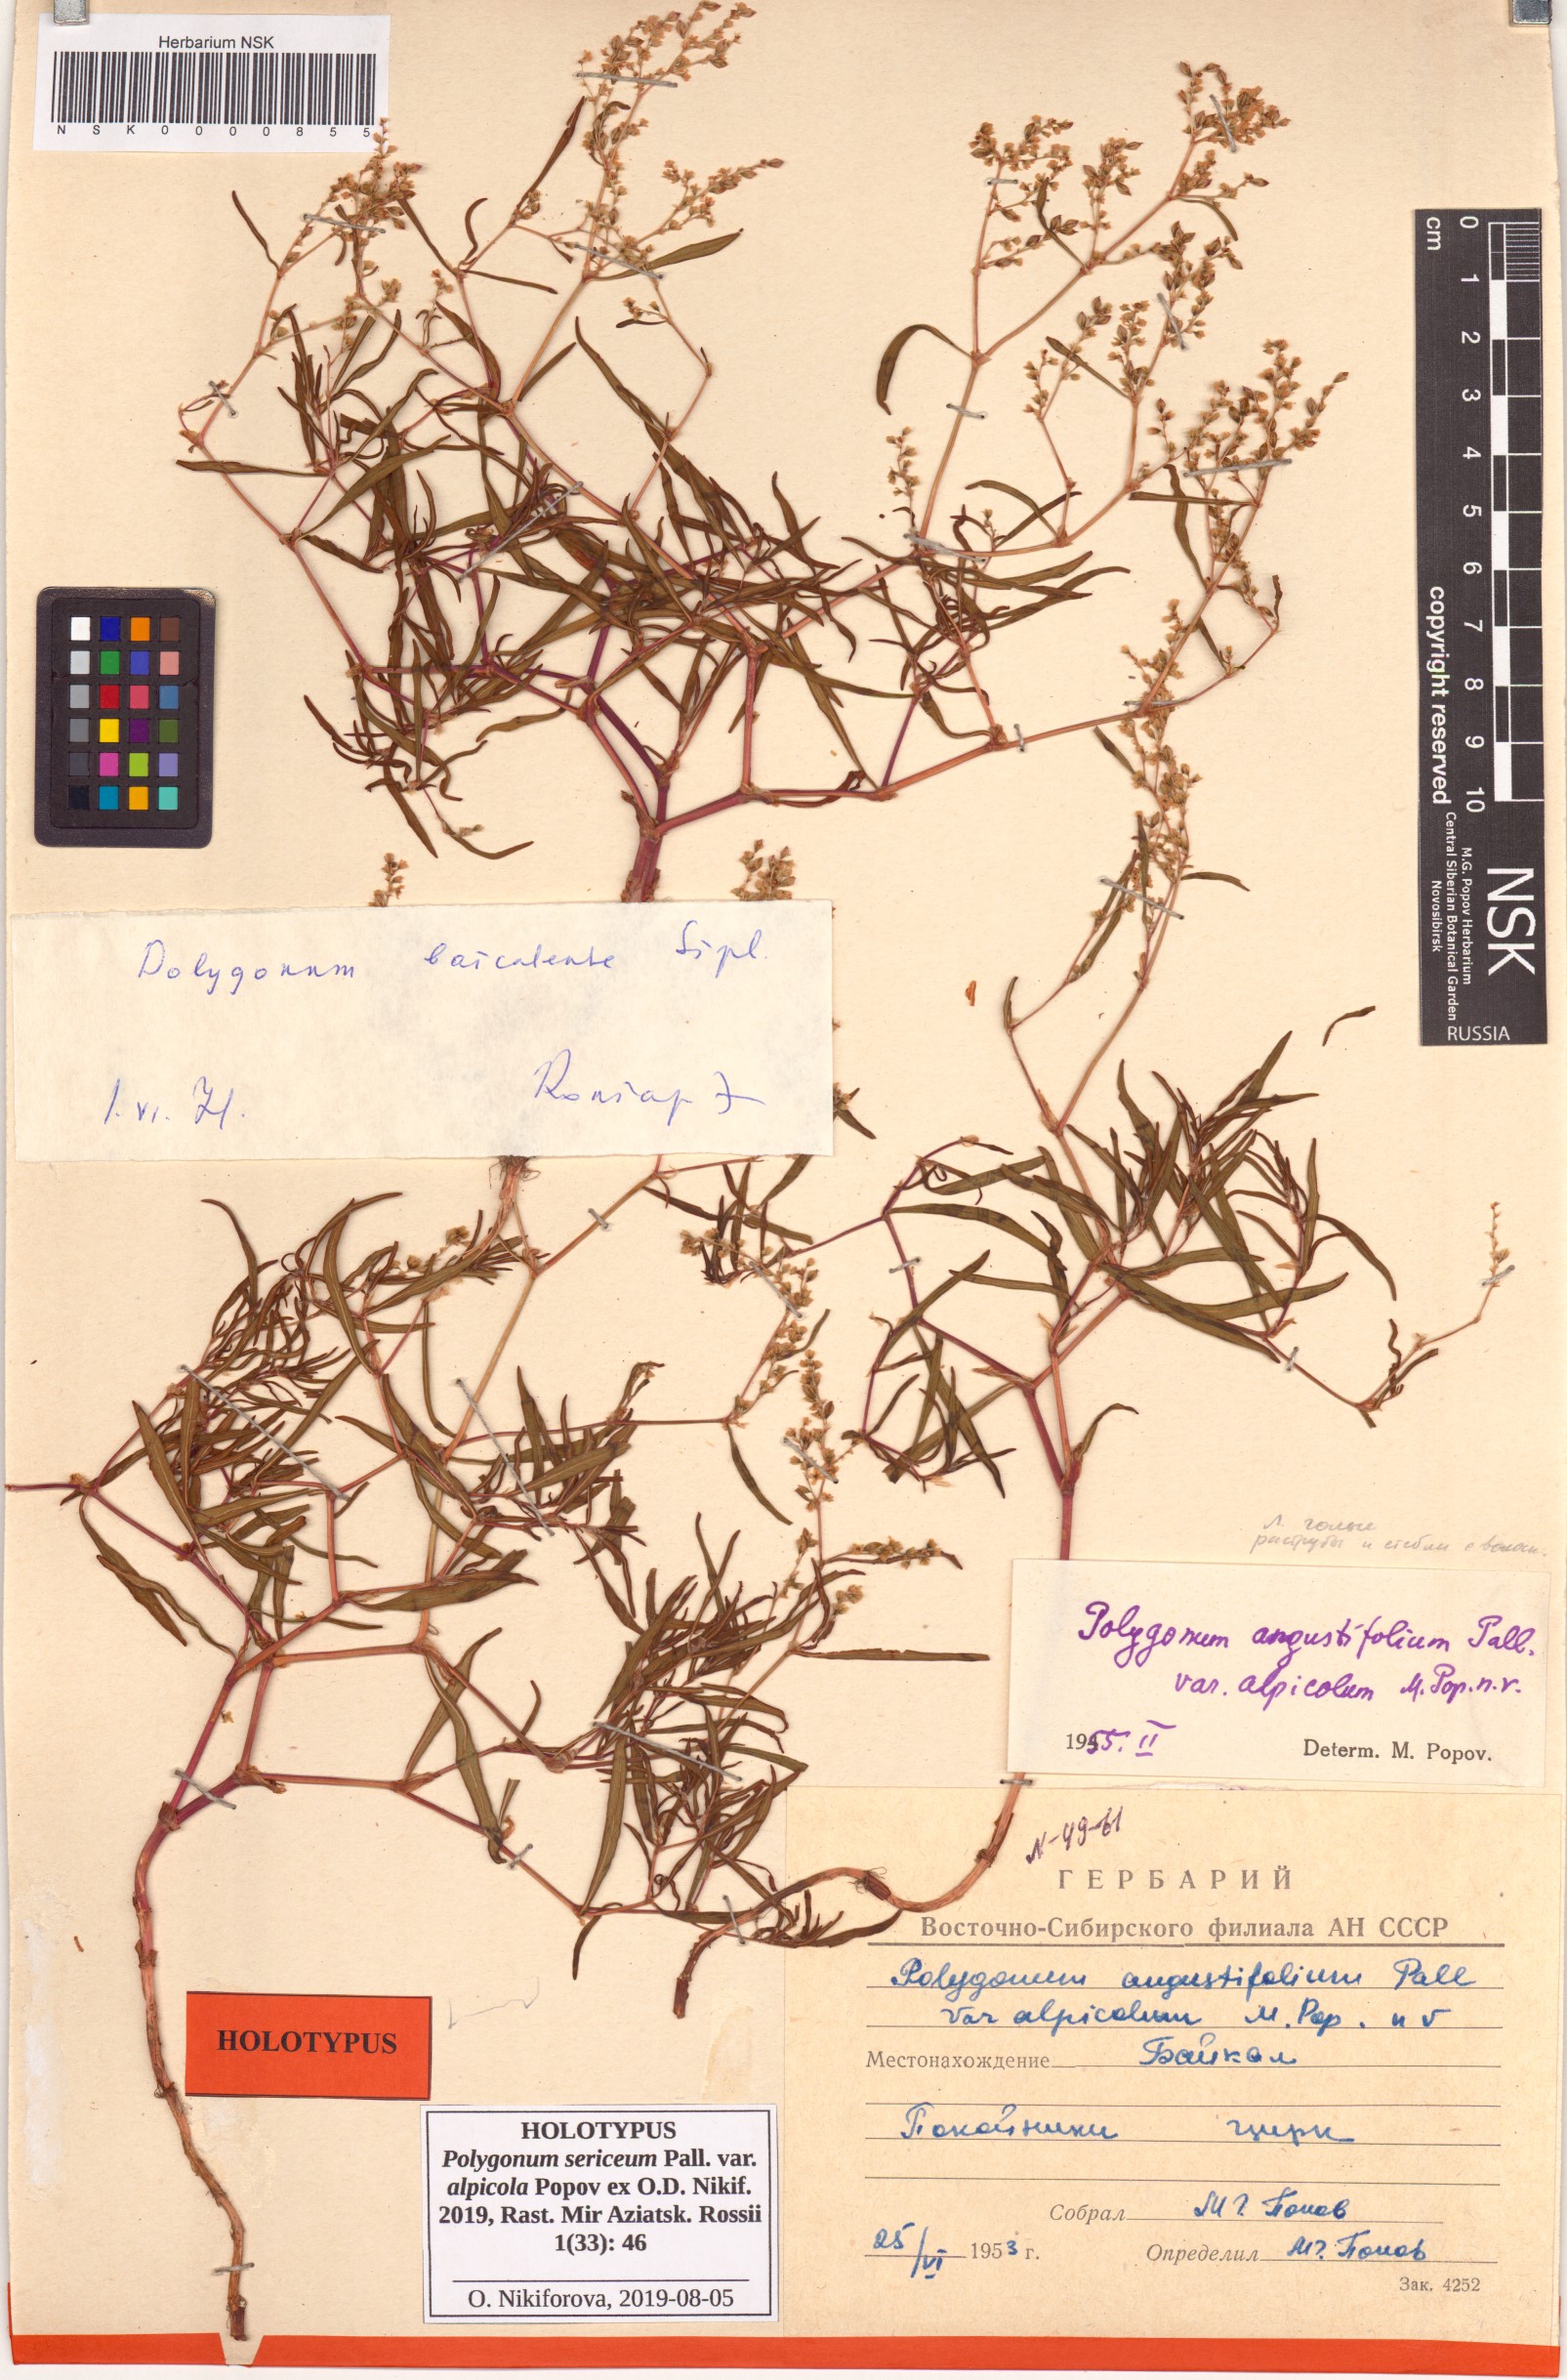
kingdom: Plantae
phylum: Tracheophyta
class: Magnoliopsida
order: Caryophyllales
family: Polygonaceae
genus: Polygonum
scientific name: Polygonum sericeum
